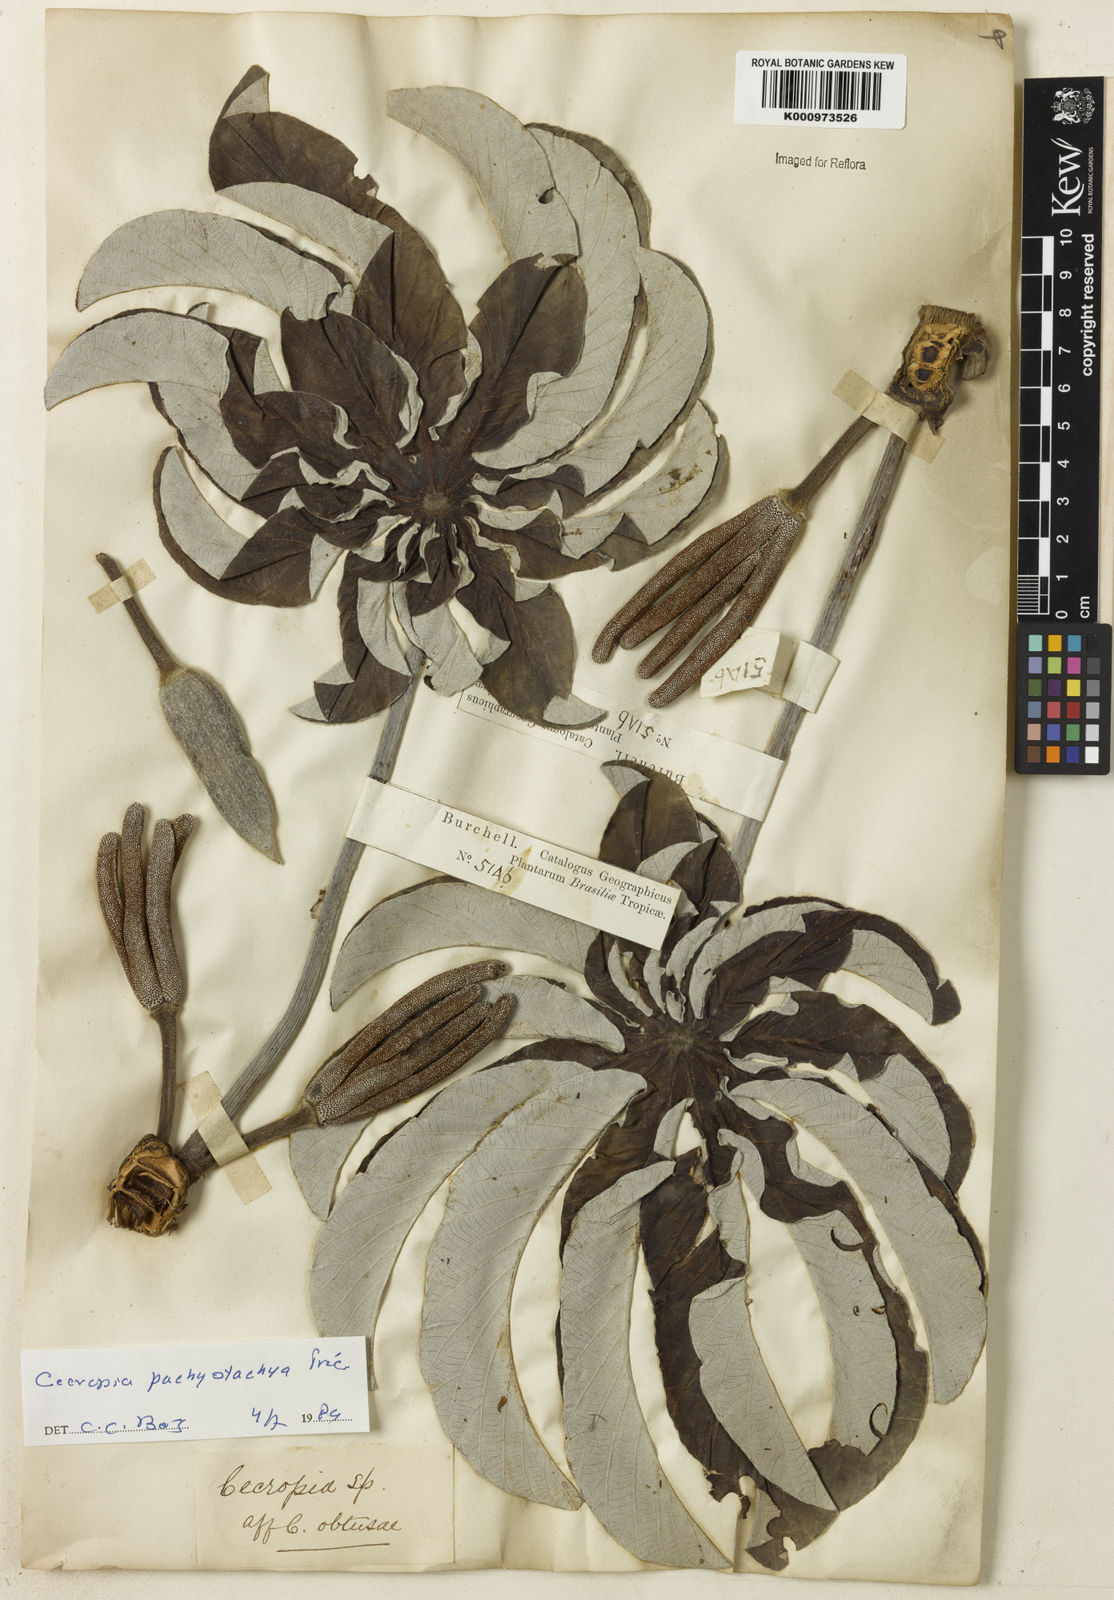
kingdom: Plantae
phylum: Tracheophyta
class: Magnoliopsida
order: Rosales
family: Urticaceae
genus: Cecropia
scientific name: Cecropia
